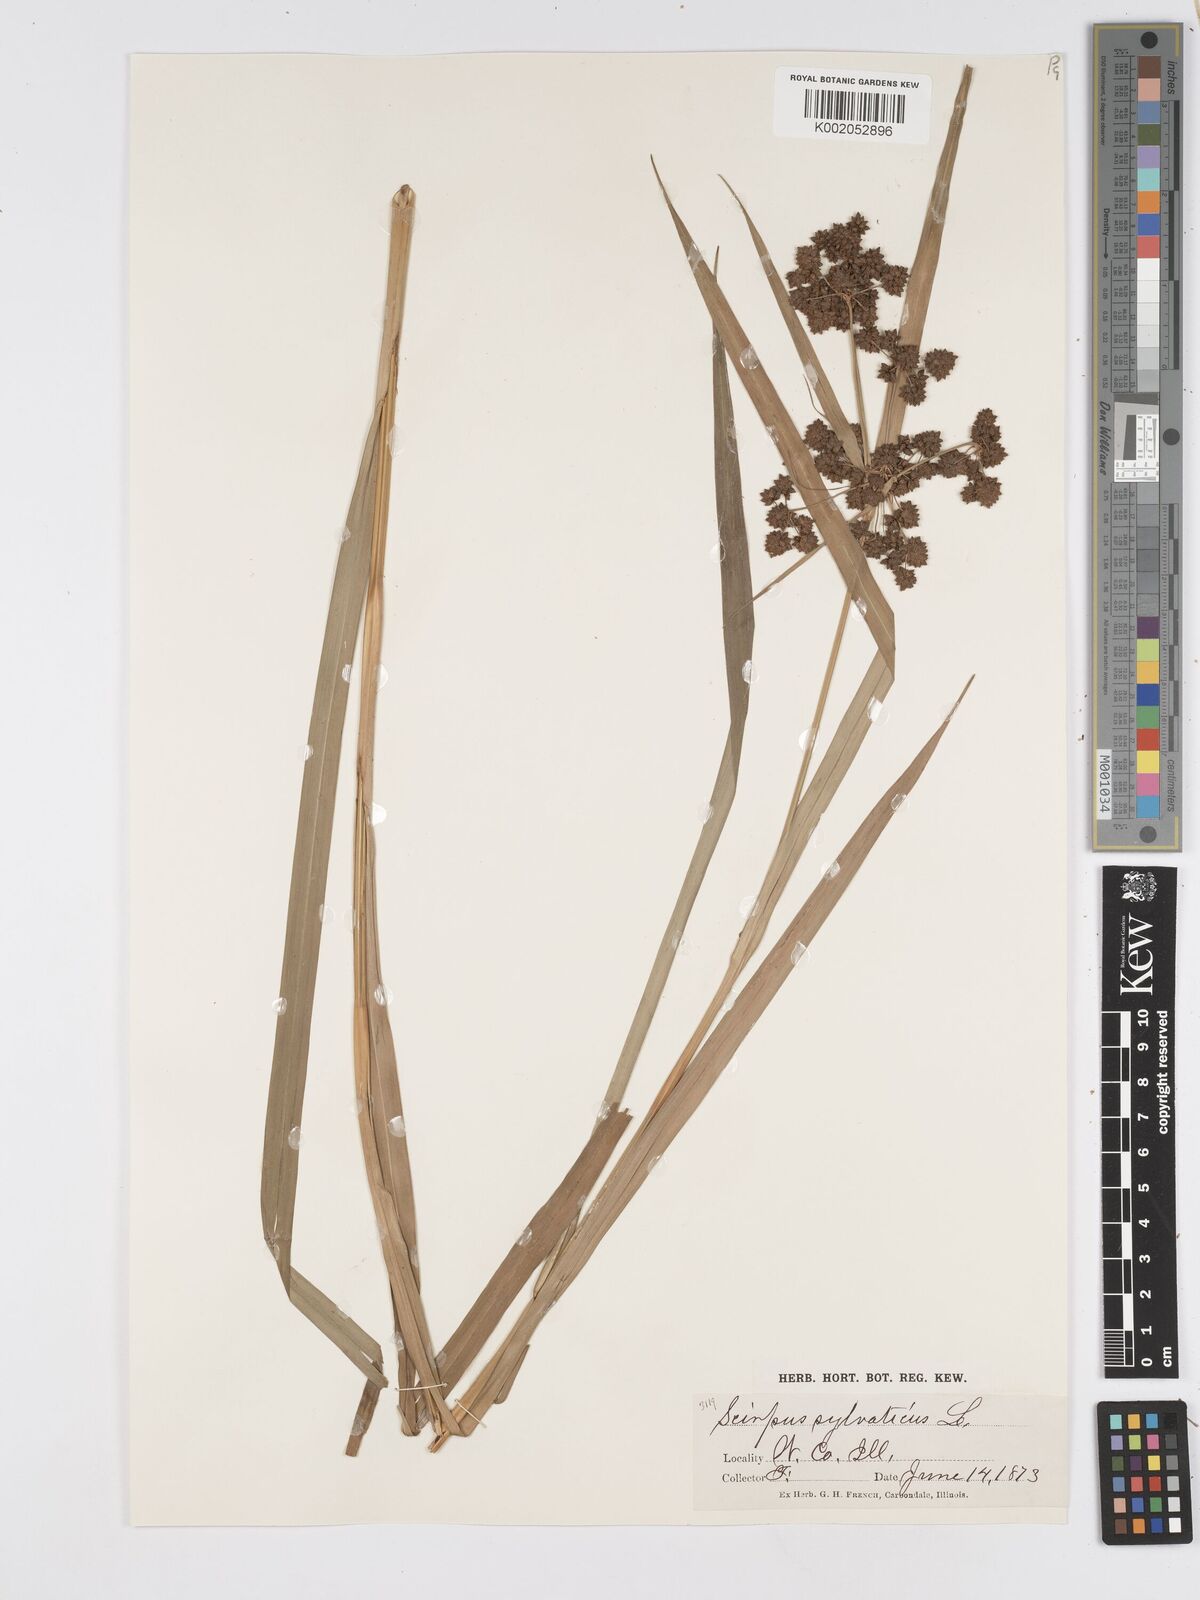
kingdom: Plantae
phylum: Tracheophyta
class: Liliopsida
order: Poales
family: Cyperaceae
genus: Scirpus
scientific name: Scirpus sylvaticus
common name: Wood club-rush
